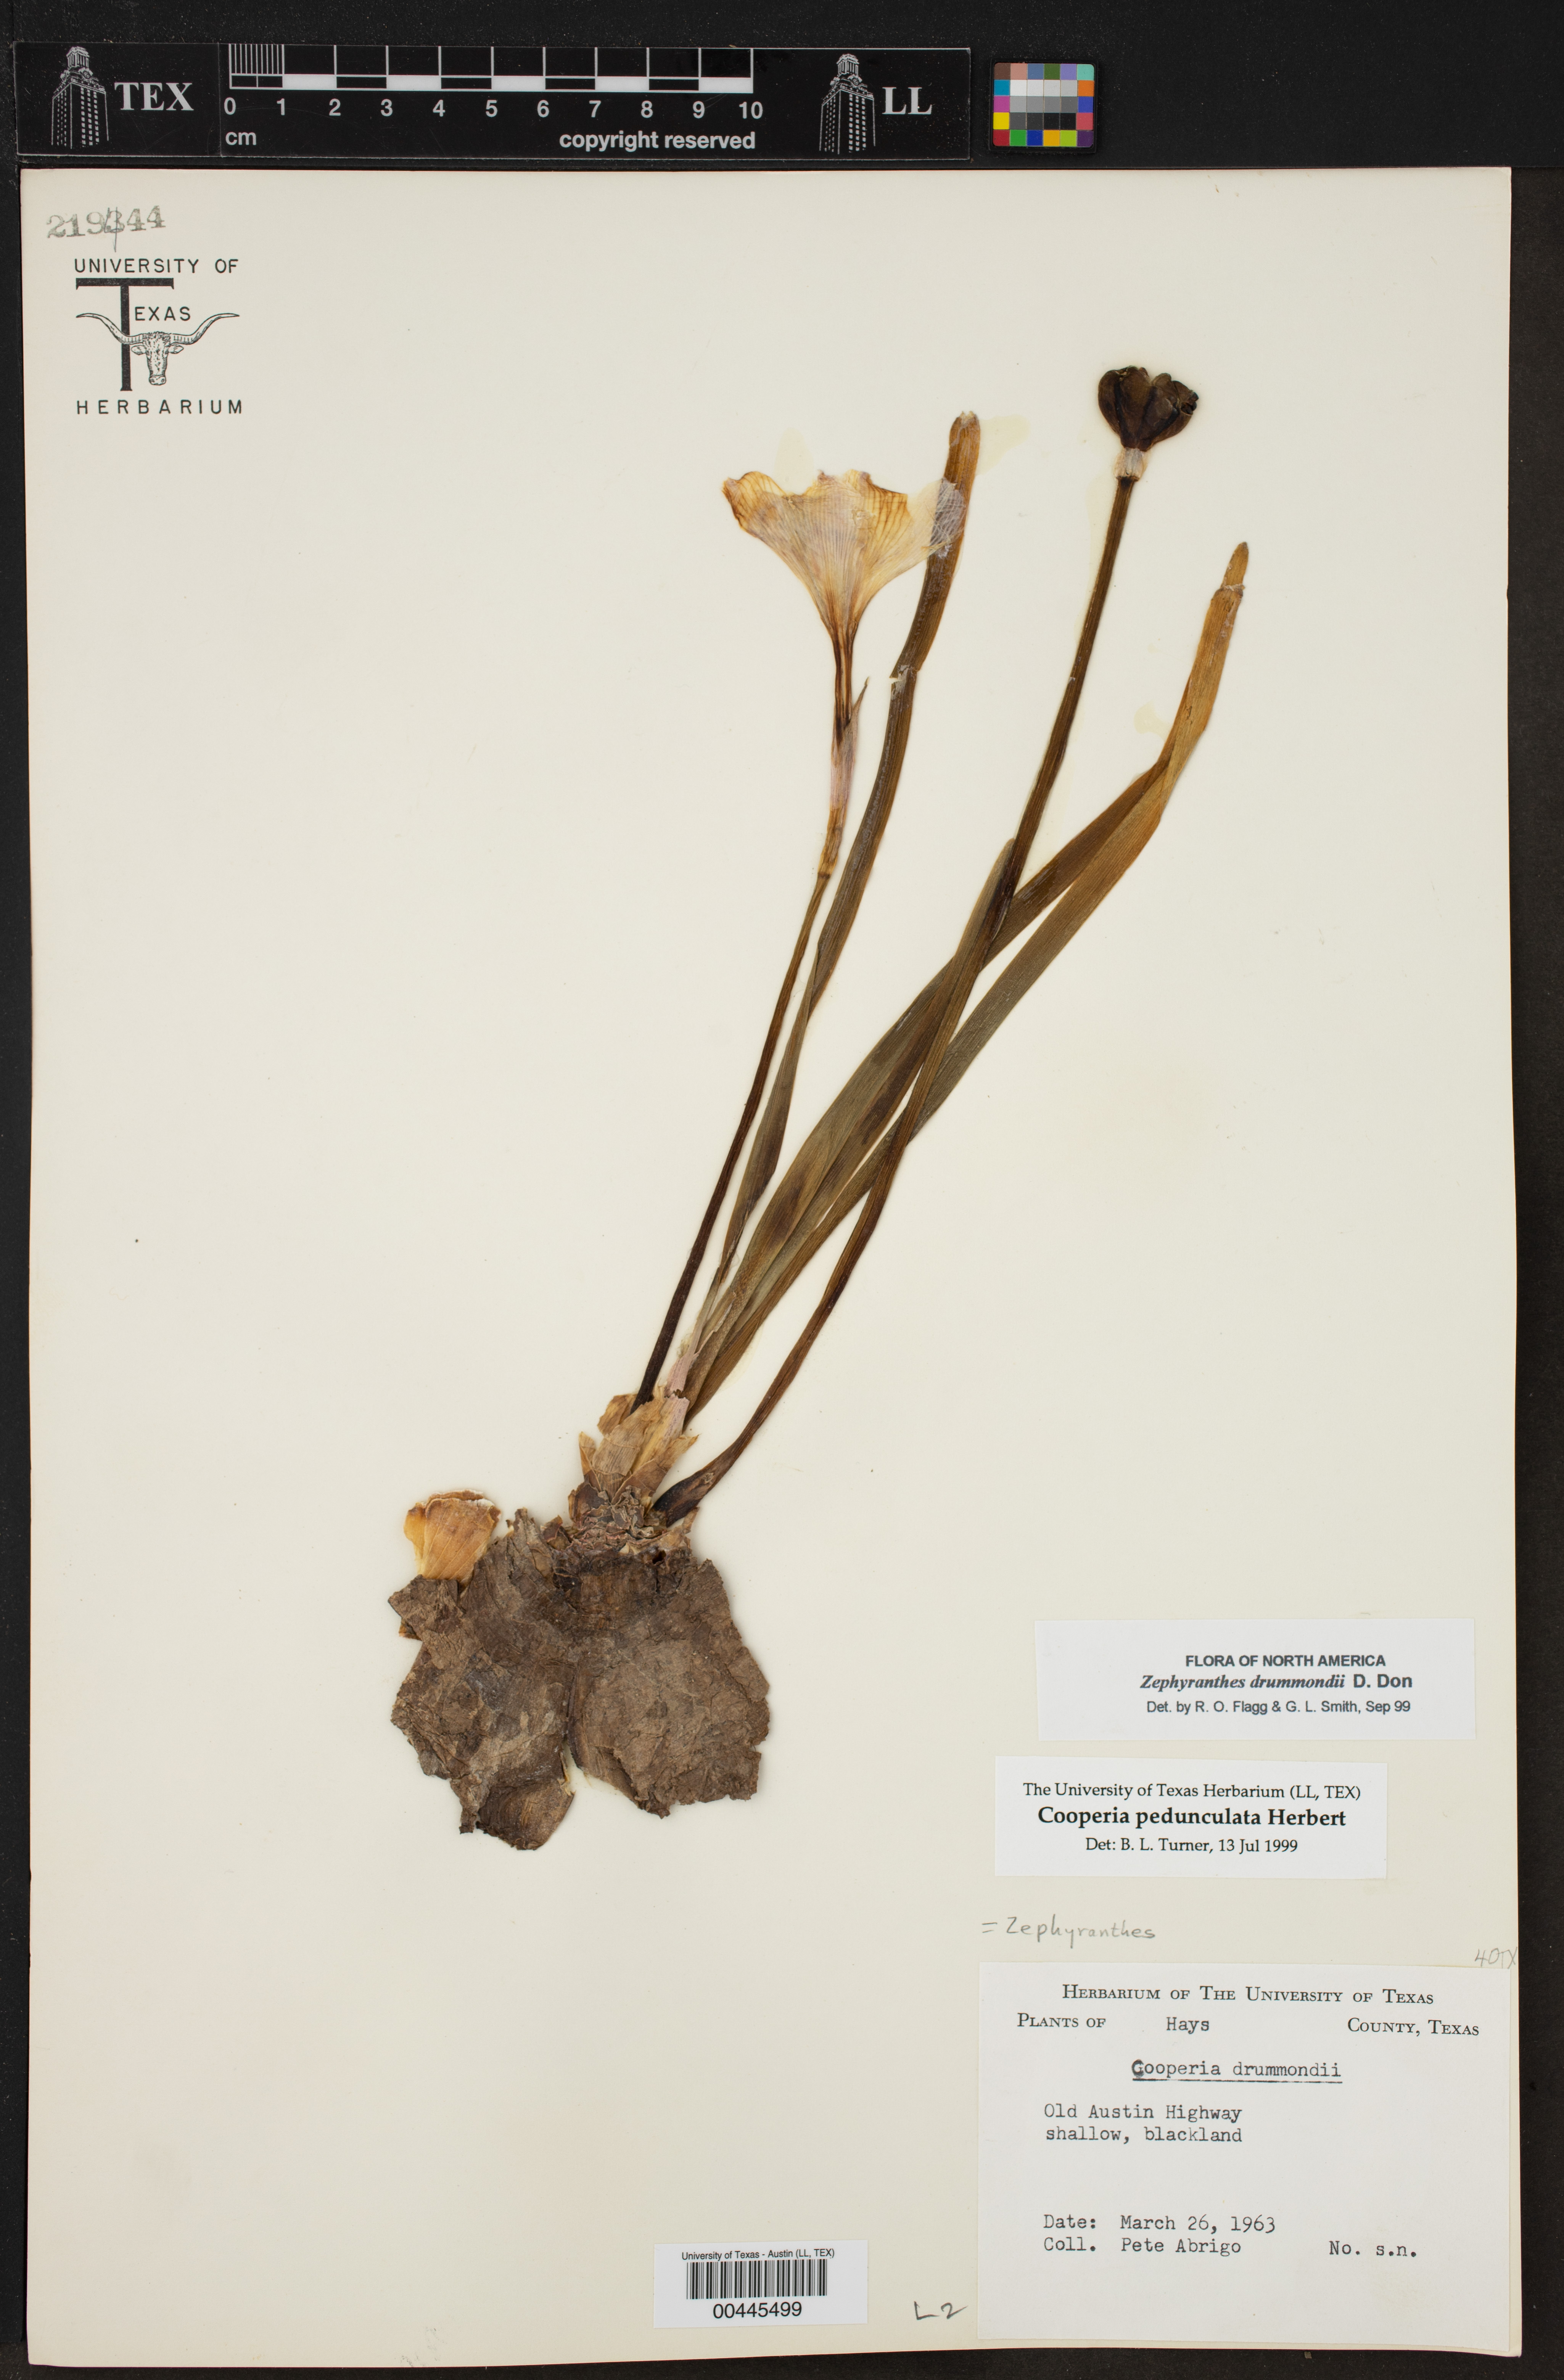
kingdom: Plantae
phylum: Tracheophyta
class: Liliopsida
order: Asparagales
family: Amaryllidaceae
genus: Zephyranthes
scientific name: Zephyranthes drummondii
